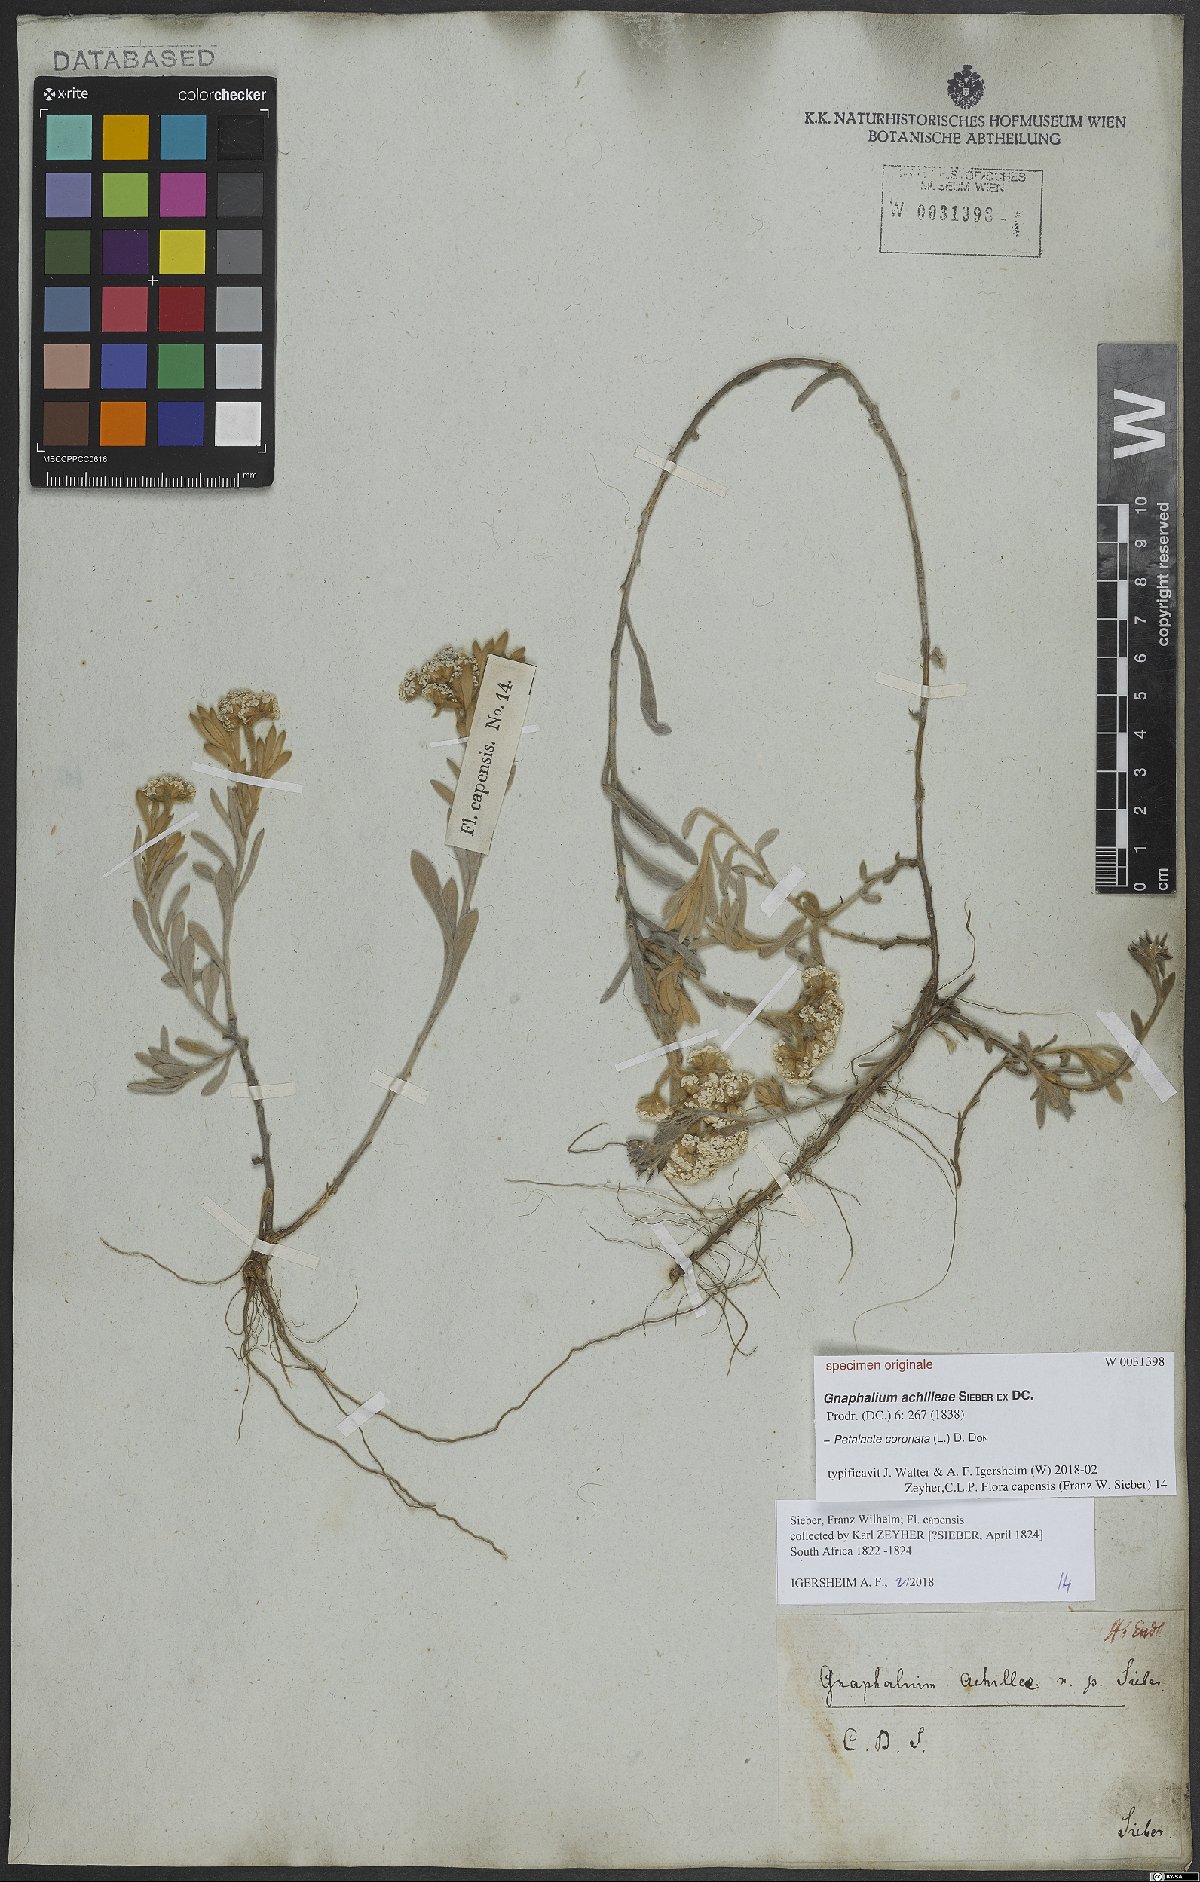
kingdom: Plantae
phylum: Tracheophyta
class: Magnoliopsida
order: Asterales
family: Asteraceae
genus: Petalacte
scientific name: Petalacte coronata
